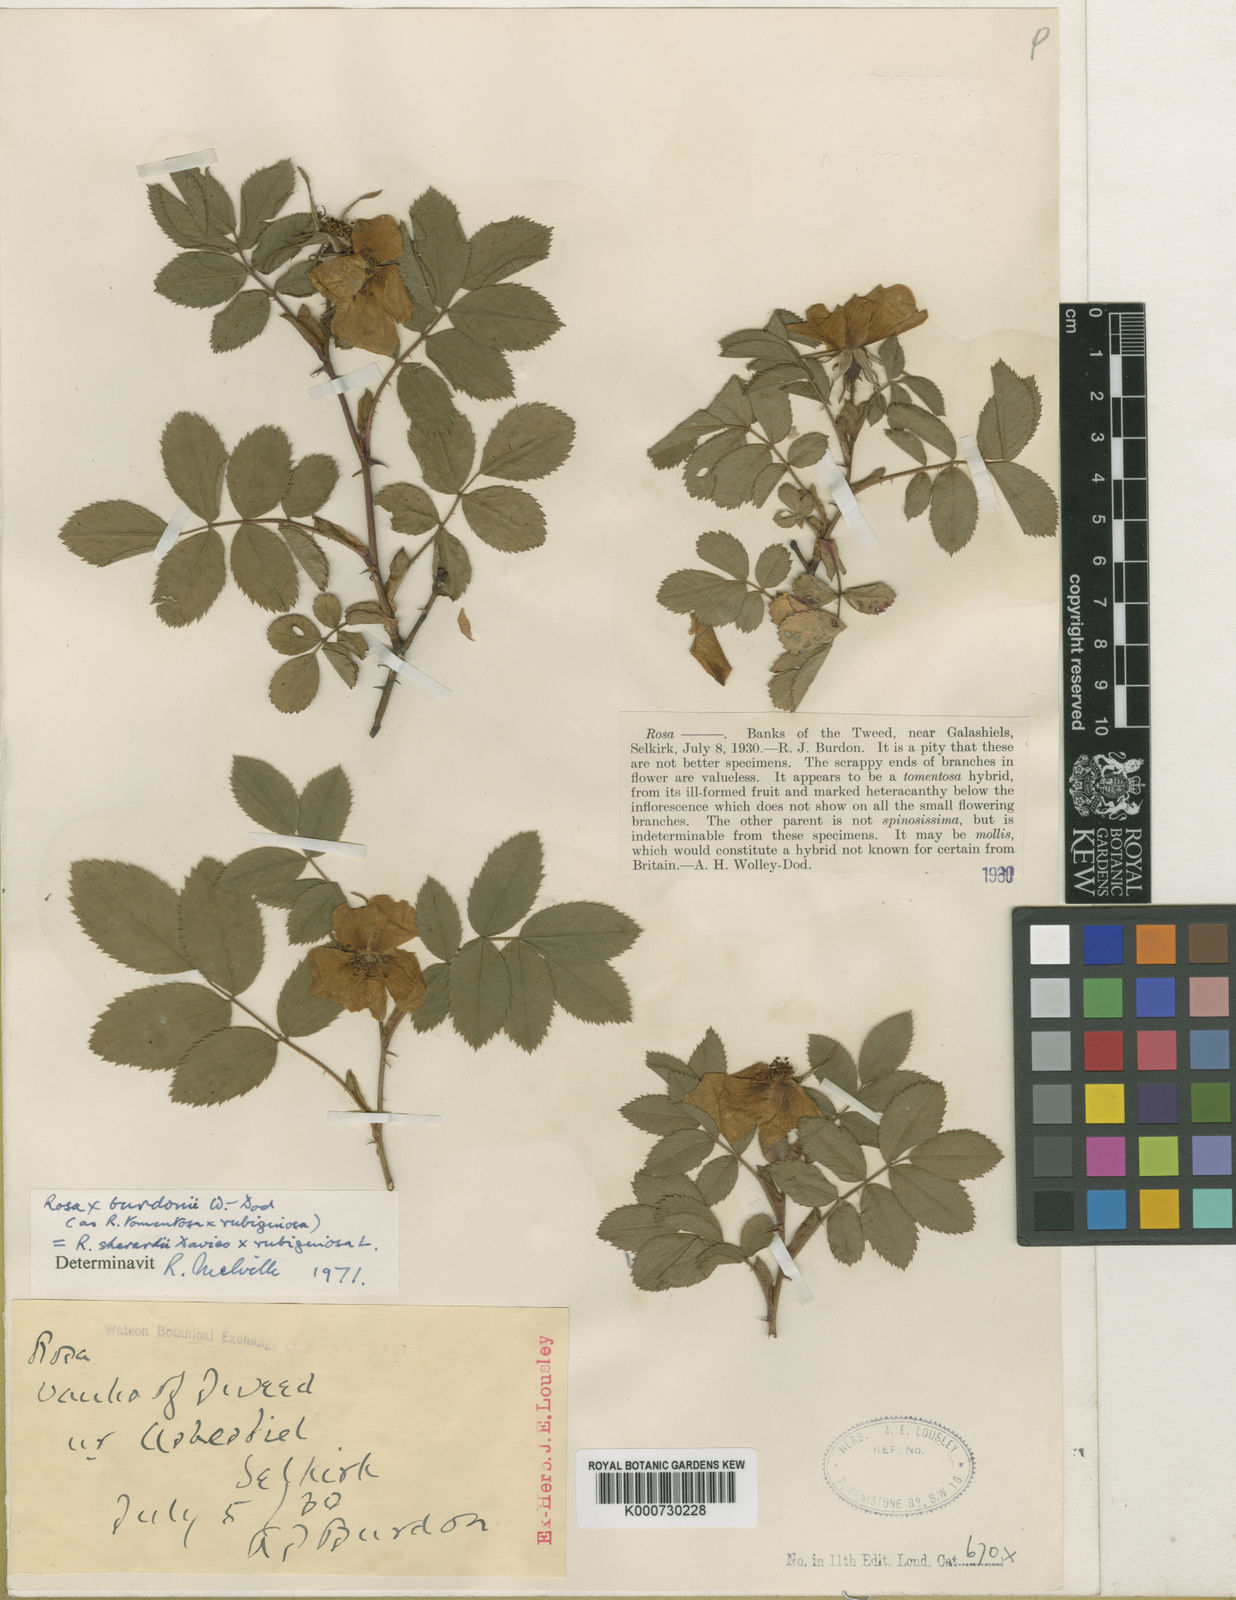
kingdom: Plantae
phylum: Tracheophyta
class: Magnoliopsida
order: Rosales
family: Rosaceae
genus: Rosa
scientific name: Rosa suberecta
